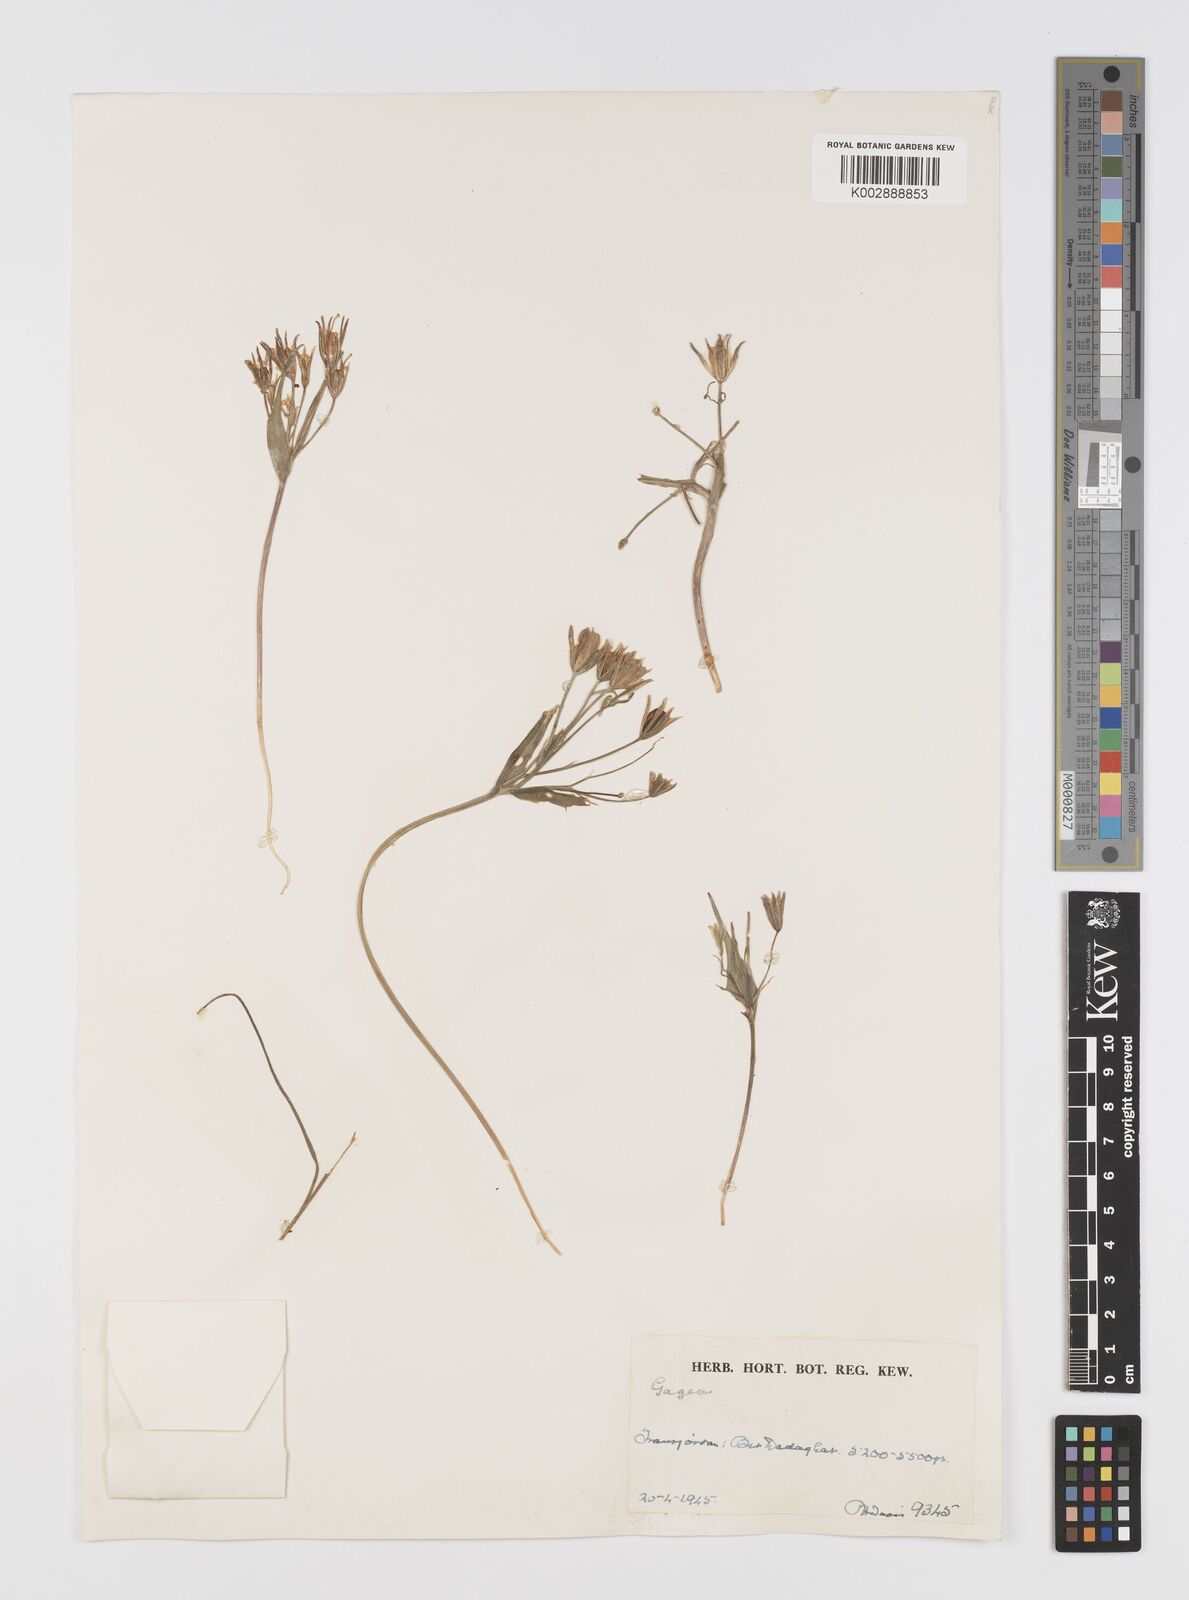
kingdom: Plantae
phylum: Tracheophyta
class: Liliopsida
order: Liliales
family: Liliaceae
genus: Gagea
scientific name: Gagea
